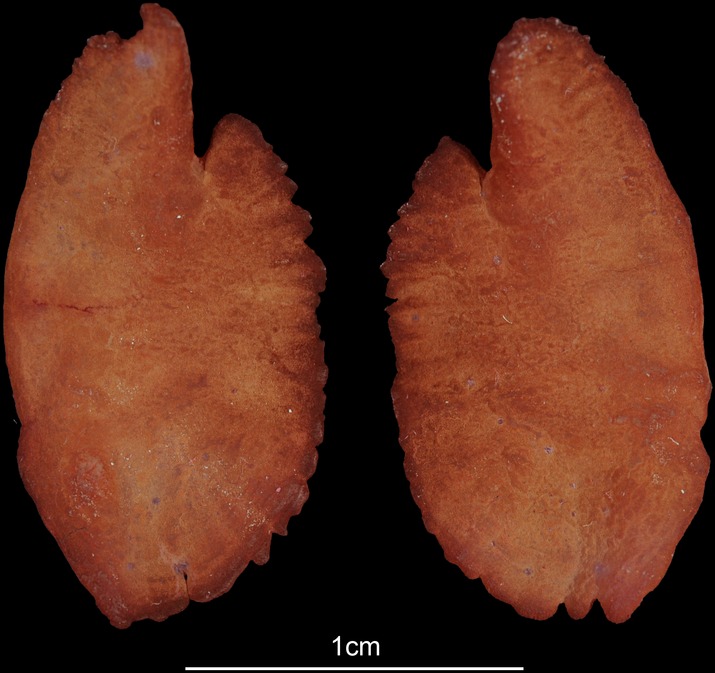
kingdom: Animalia
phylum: Chordata
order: Perciformes
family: Serranidae
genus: Epinephelus
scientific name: Epinephelus marginatus
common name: Dusky grouper
